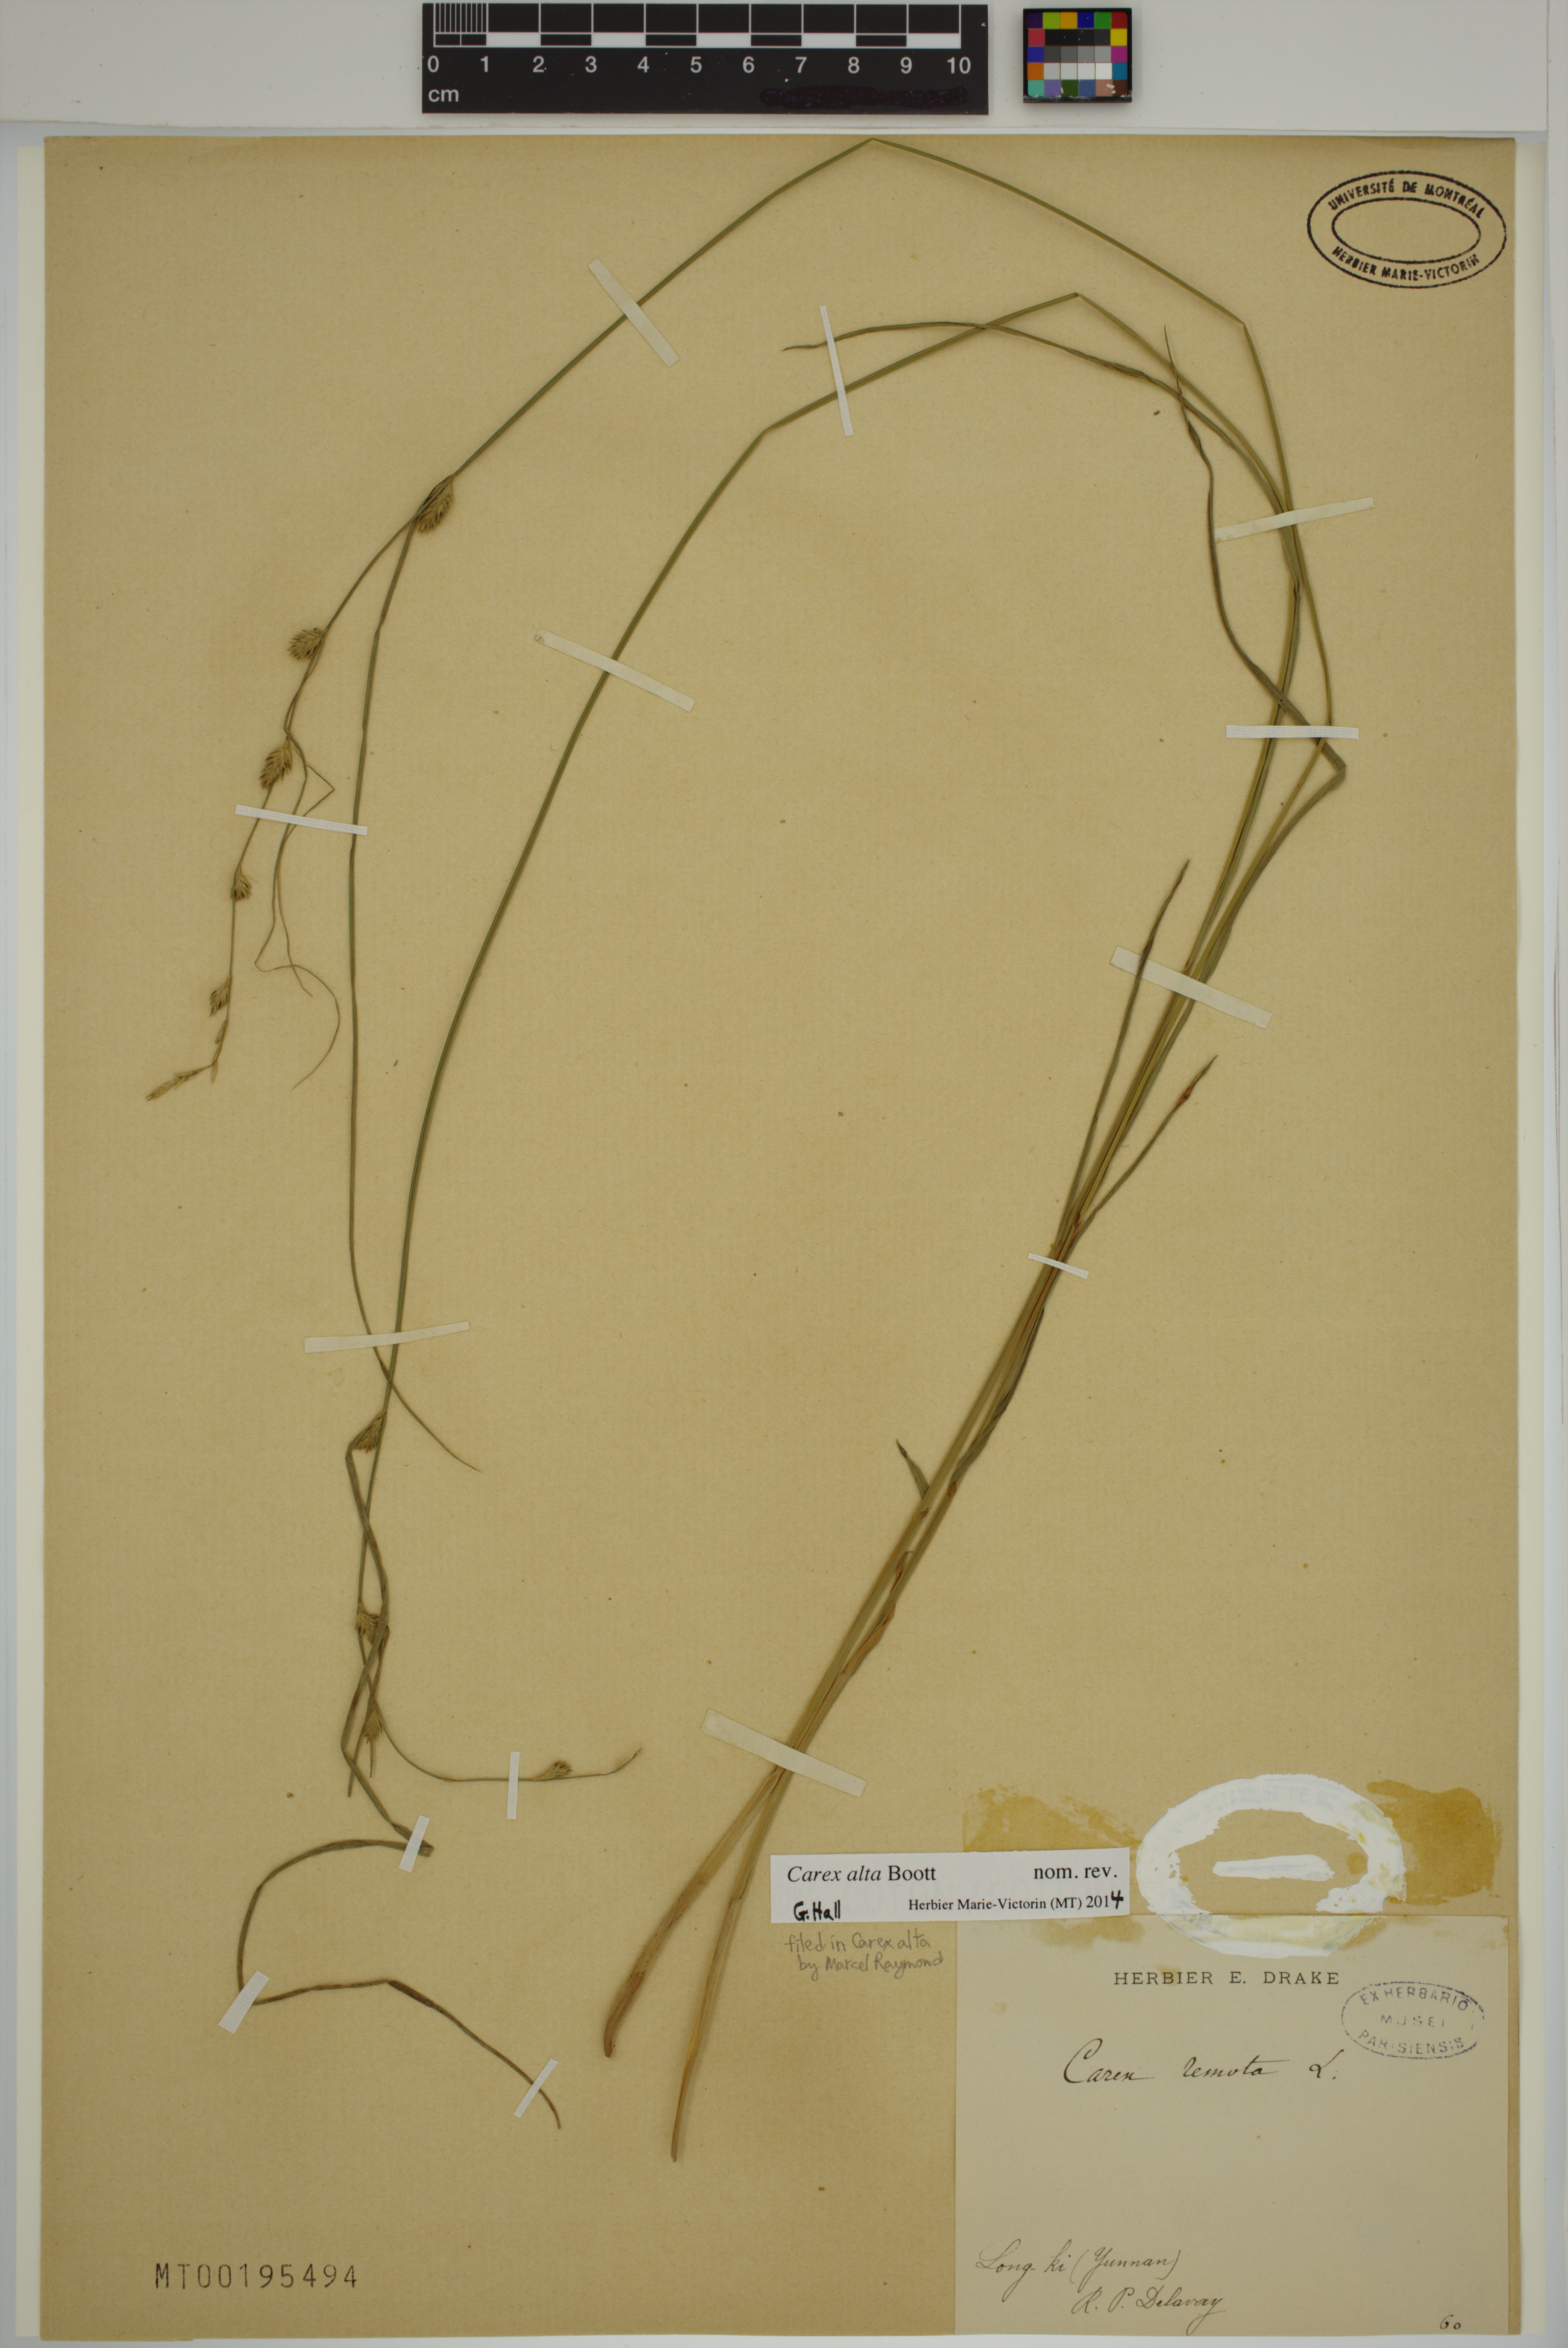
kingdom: Plantae
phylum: Tracheophyta
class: Liliopsida
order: Poales
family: Cyperaceae
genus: Carex
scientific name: Carex alta
